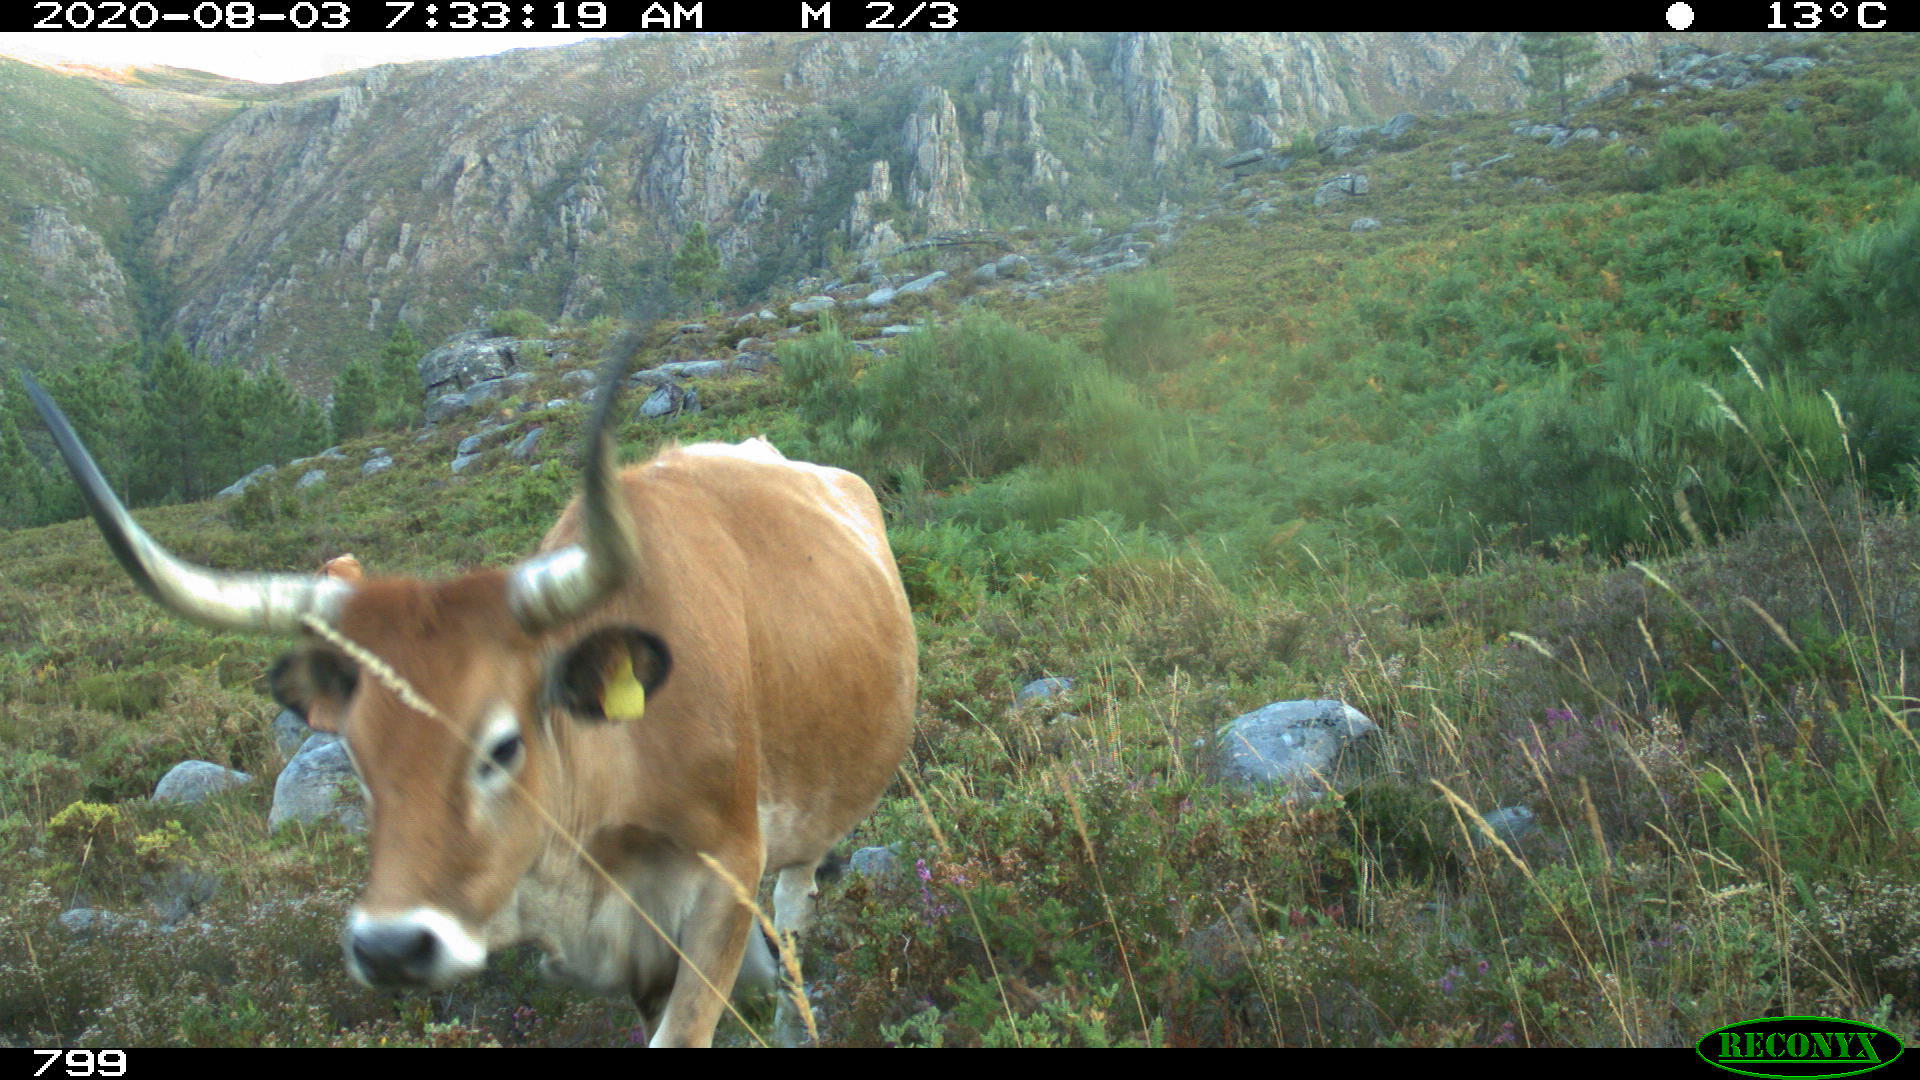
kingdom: Animalia
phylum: Chordata
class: Mammalia
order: Artiodactyla
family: Bovidae
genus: Bos
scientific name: Bos taurus
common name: Domesticated cattle
